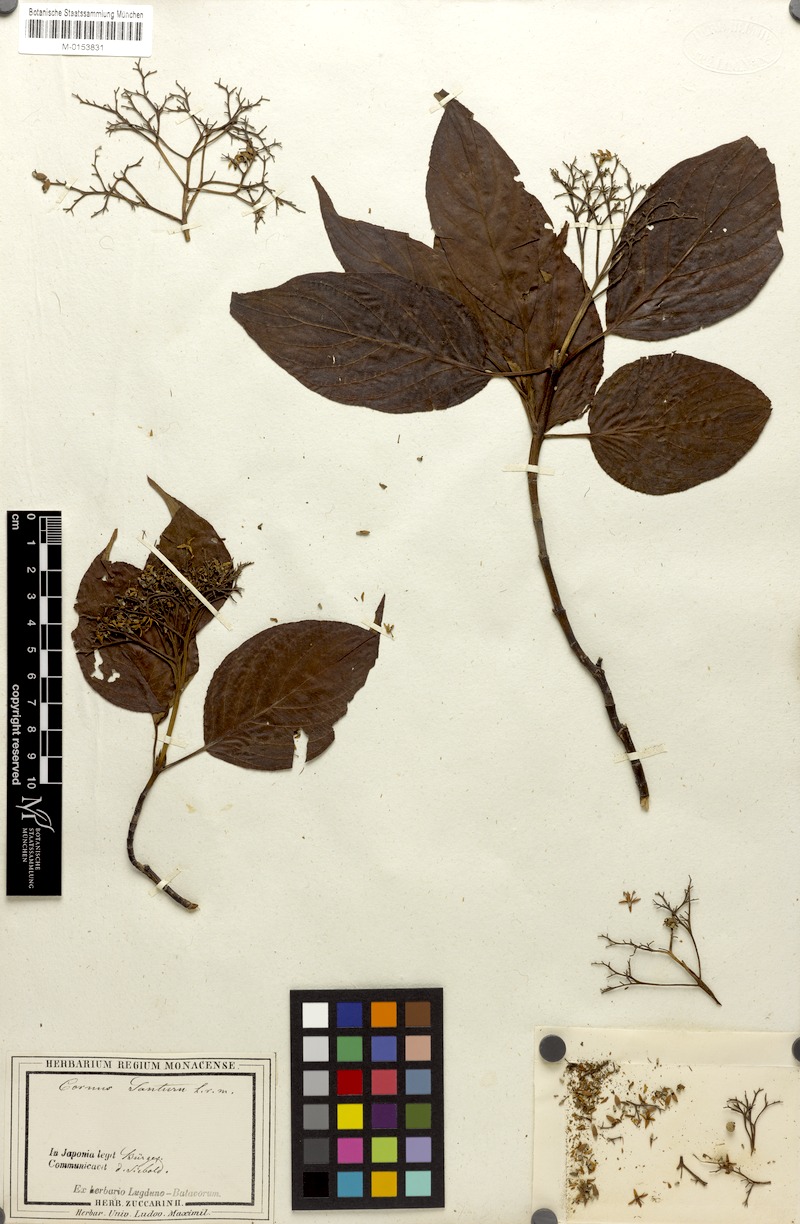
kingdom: Plantae
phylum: Tracheophyta
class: Magnoliopsida
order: Cornales
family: Cornaceae
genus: Cornus
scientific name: Cornus amomum
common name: Silky dogwood
